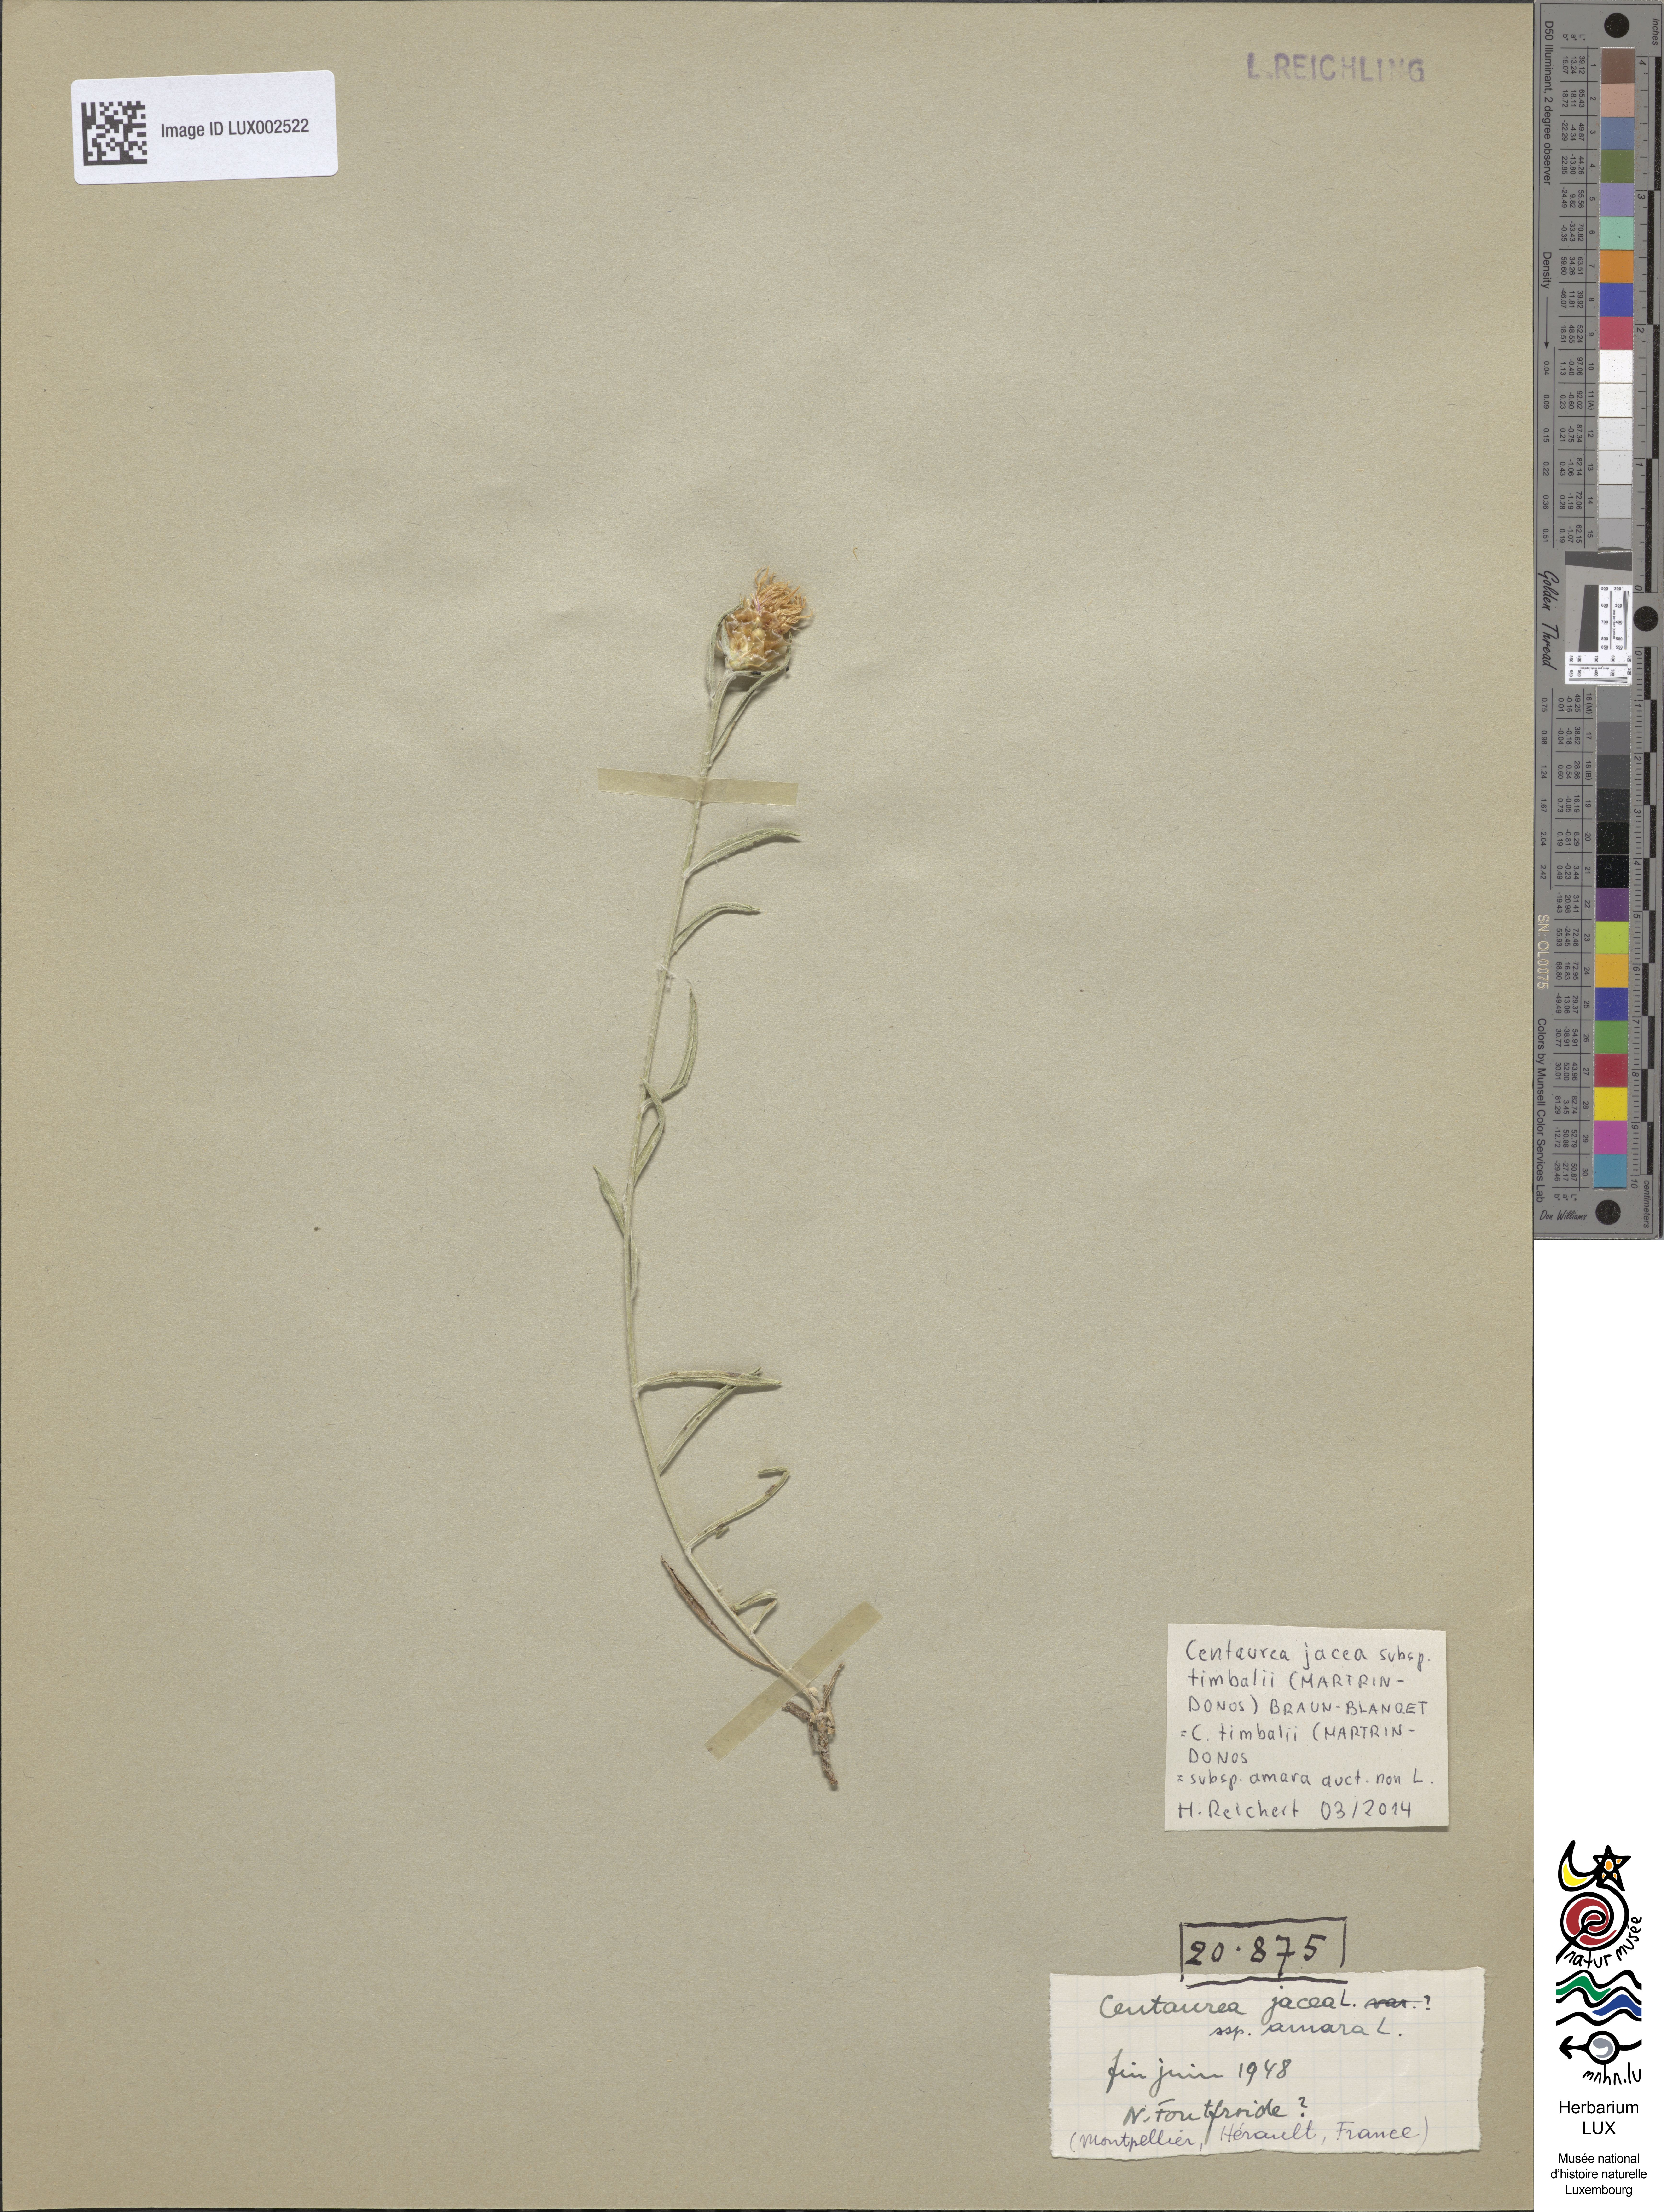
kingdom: Plantae
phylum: Tracheophyta
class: Magnoliopsida
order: Asterales
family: Asteraceae
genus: Centaurea
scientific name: Centaurea pannonica
